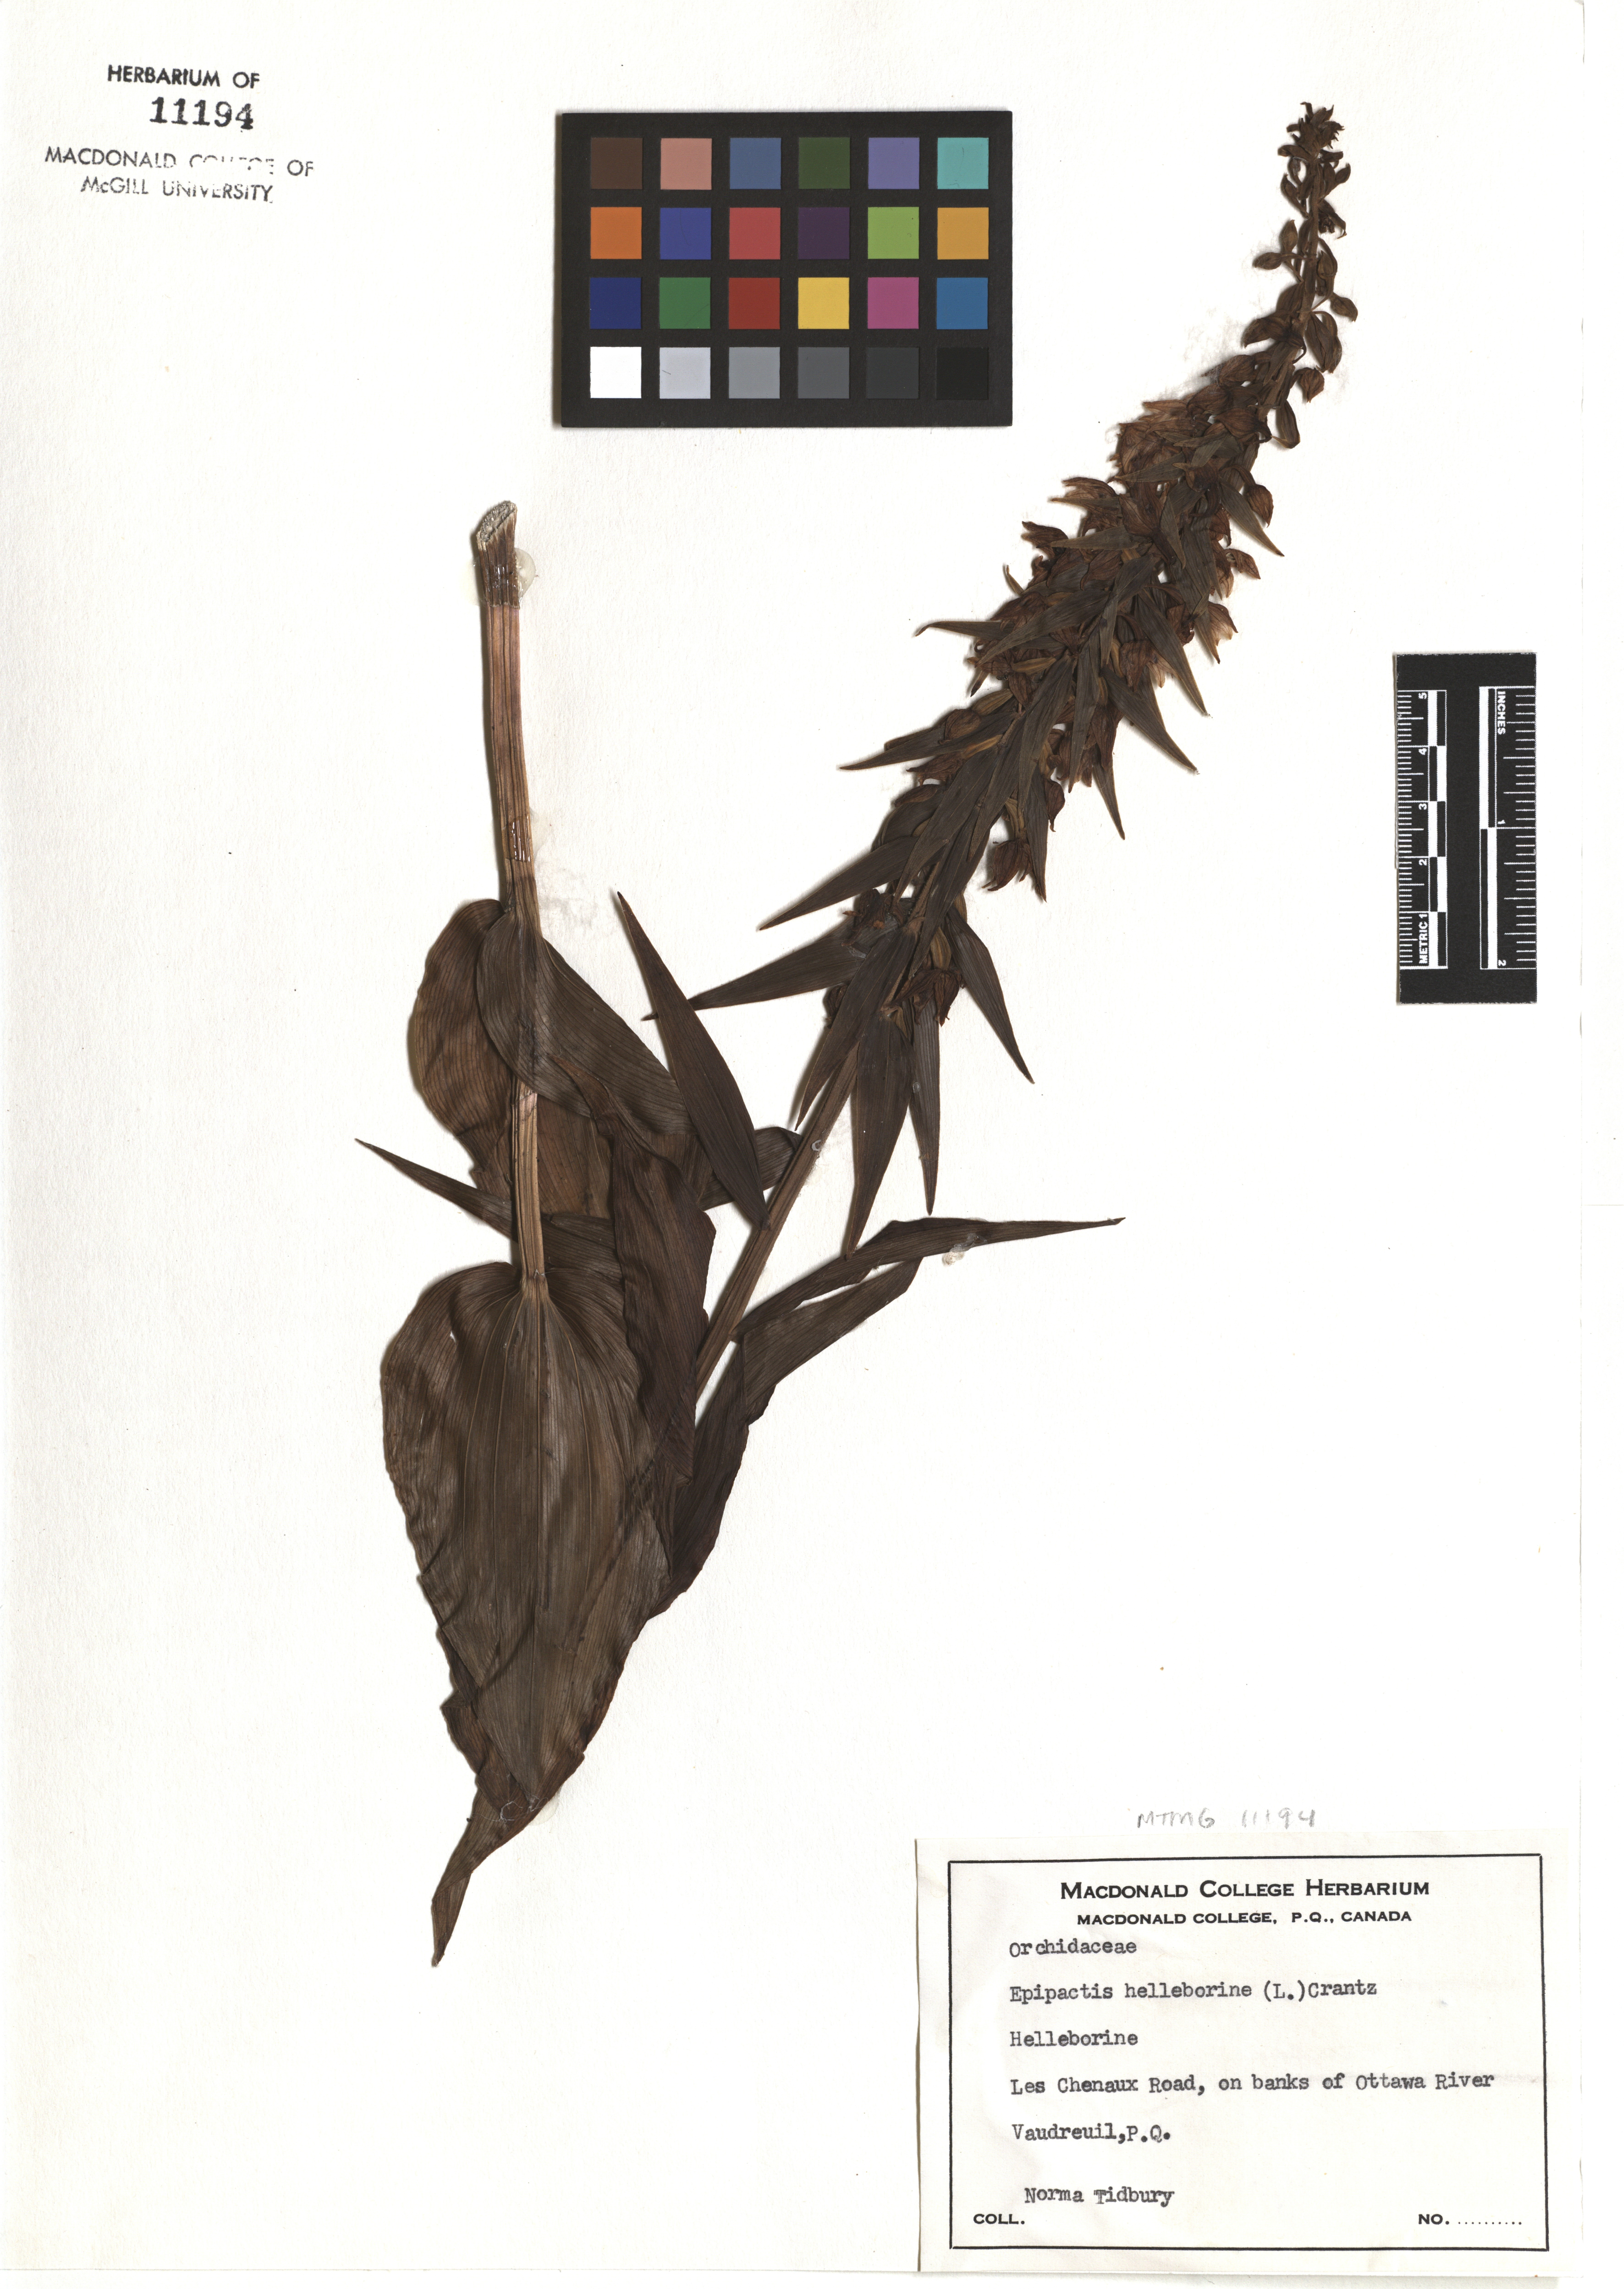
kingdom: Plantae
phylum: Tracheophyta
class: Liliopsida
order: Asparagales
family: Orchidaceae
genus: Epipactis
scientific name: Epipactis helleborine
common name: Broad-leaved helleborine
